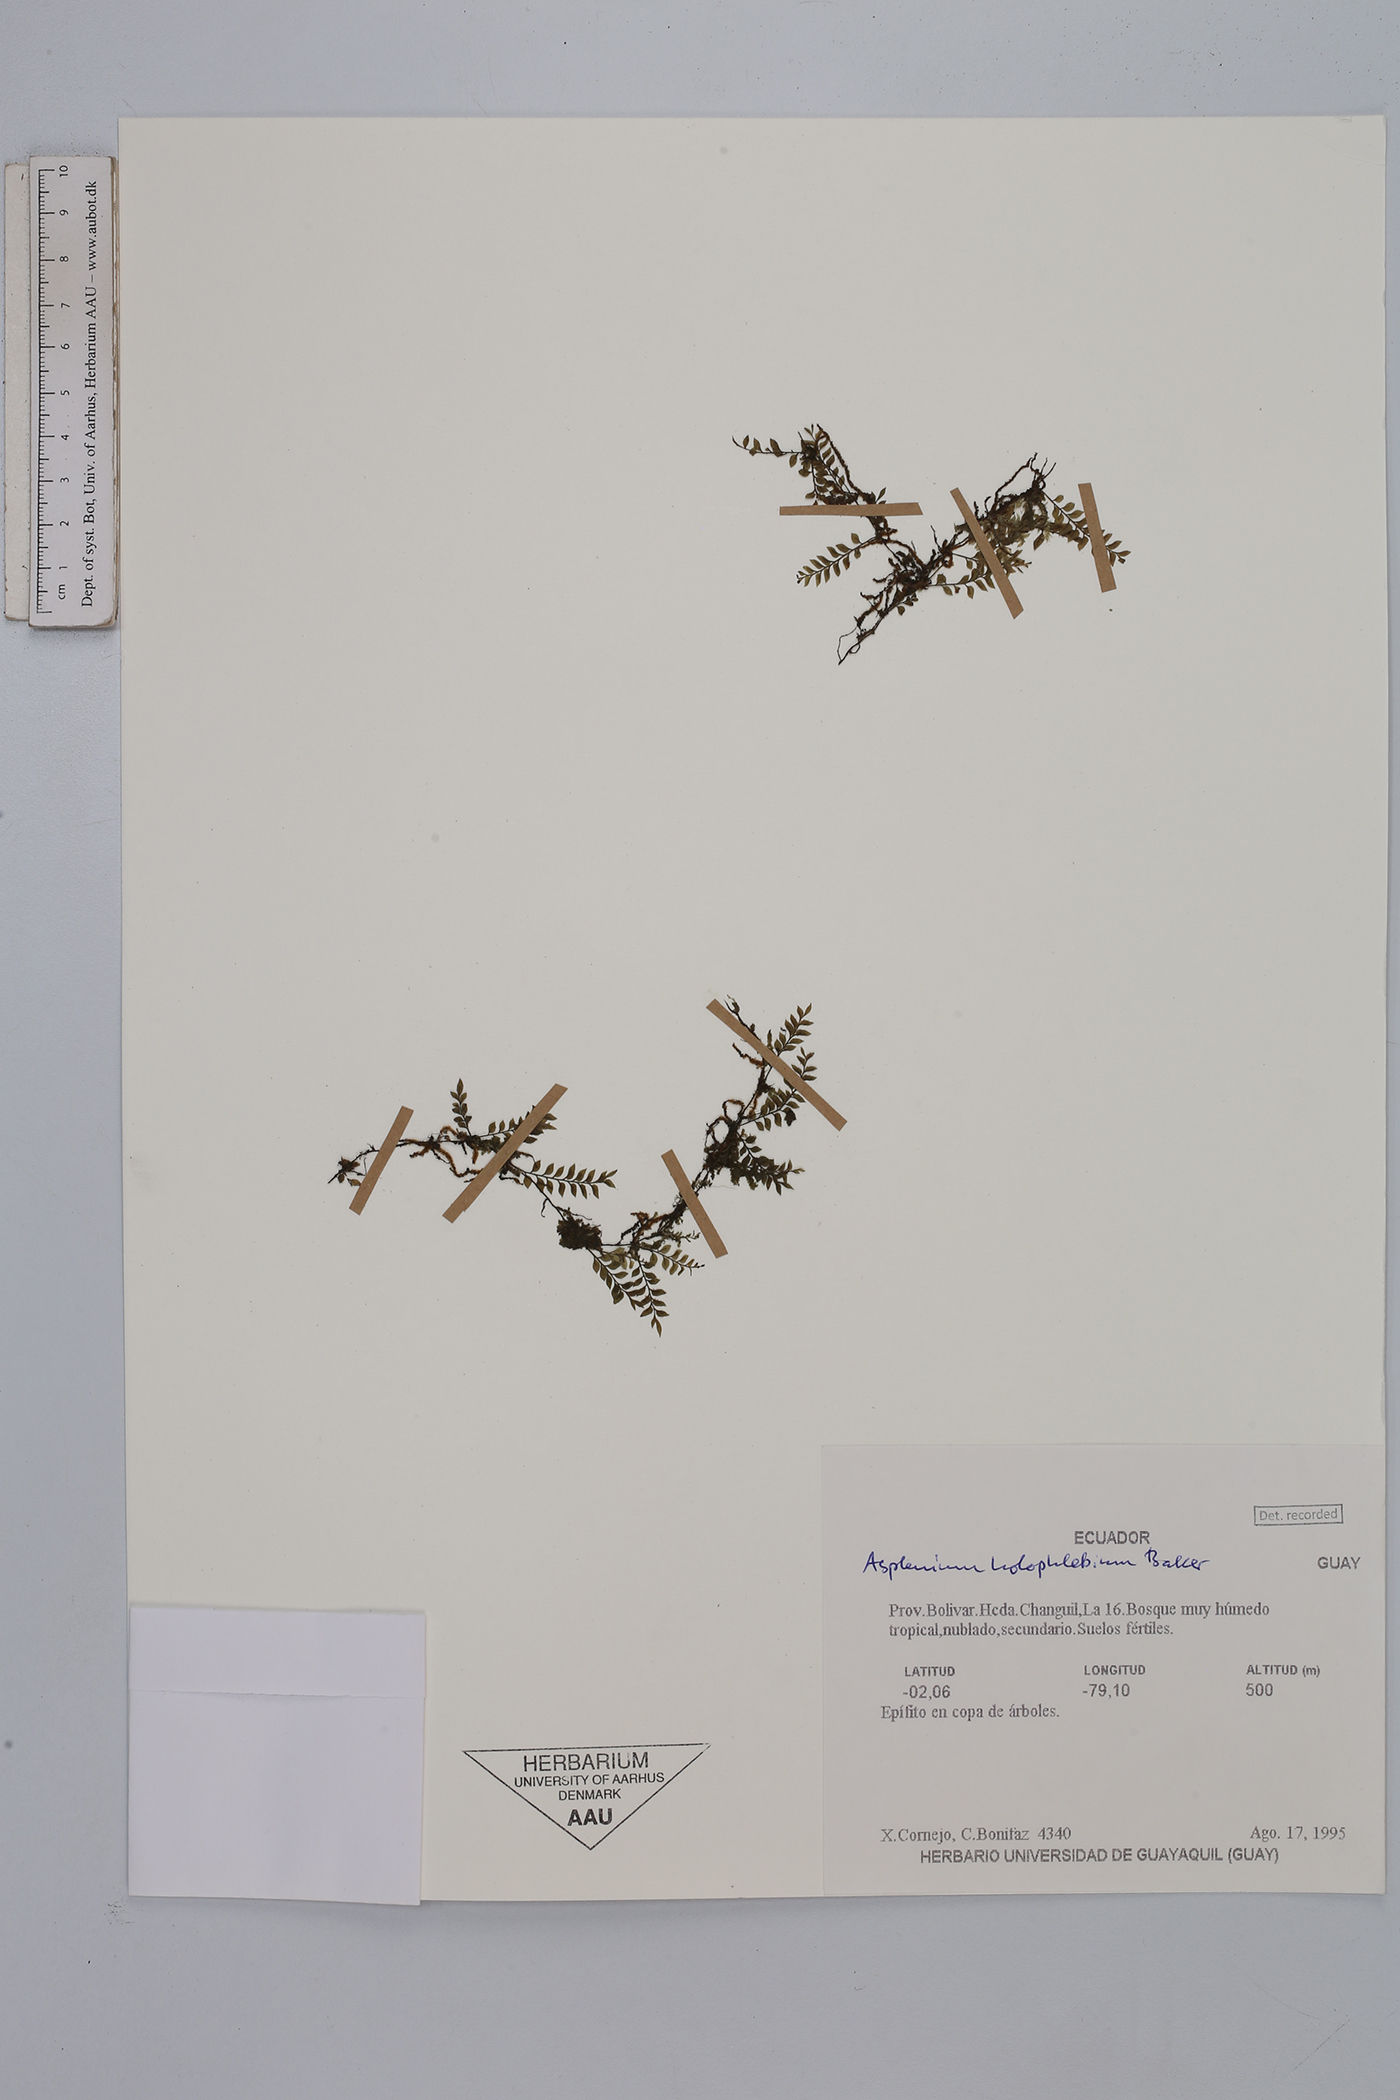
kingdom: Plantae
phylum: Tracheophyta
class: Polypodiopsida
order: Polypodiales
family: Aspleniaceae
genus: Asplenium
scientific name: Asplenium holophlebium
